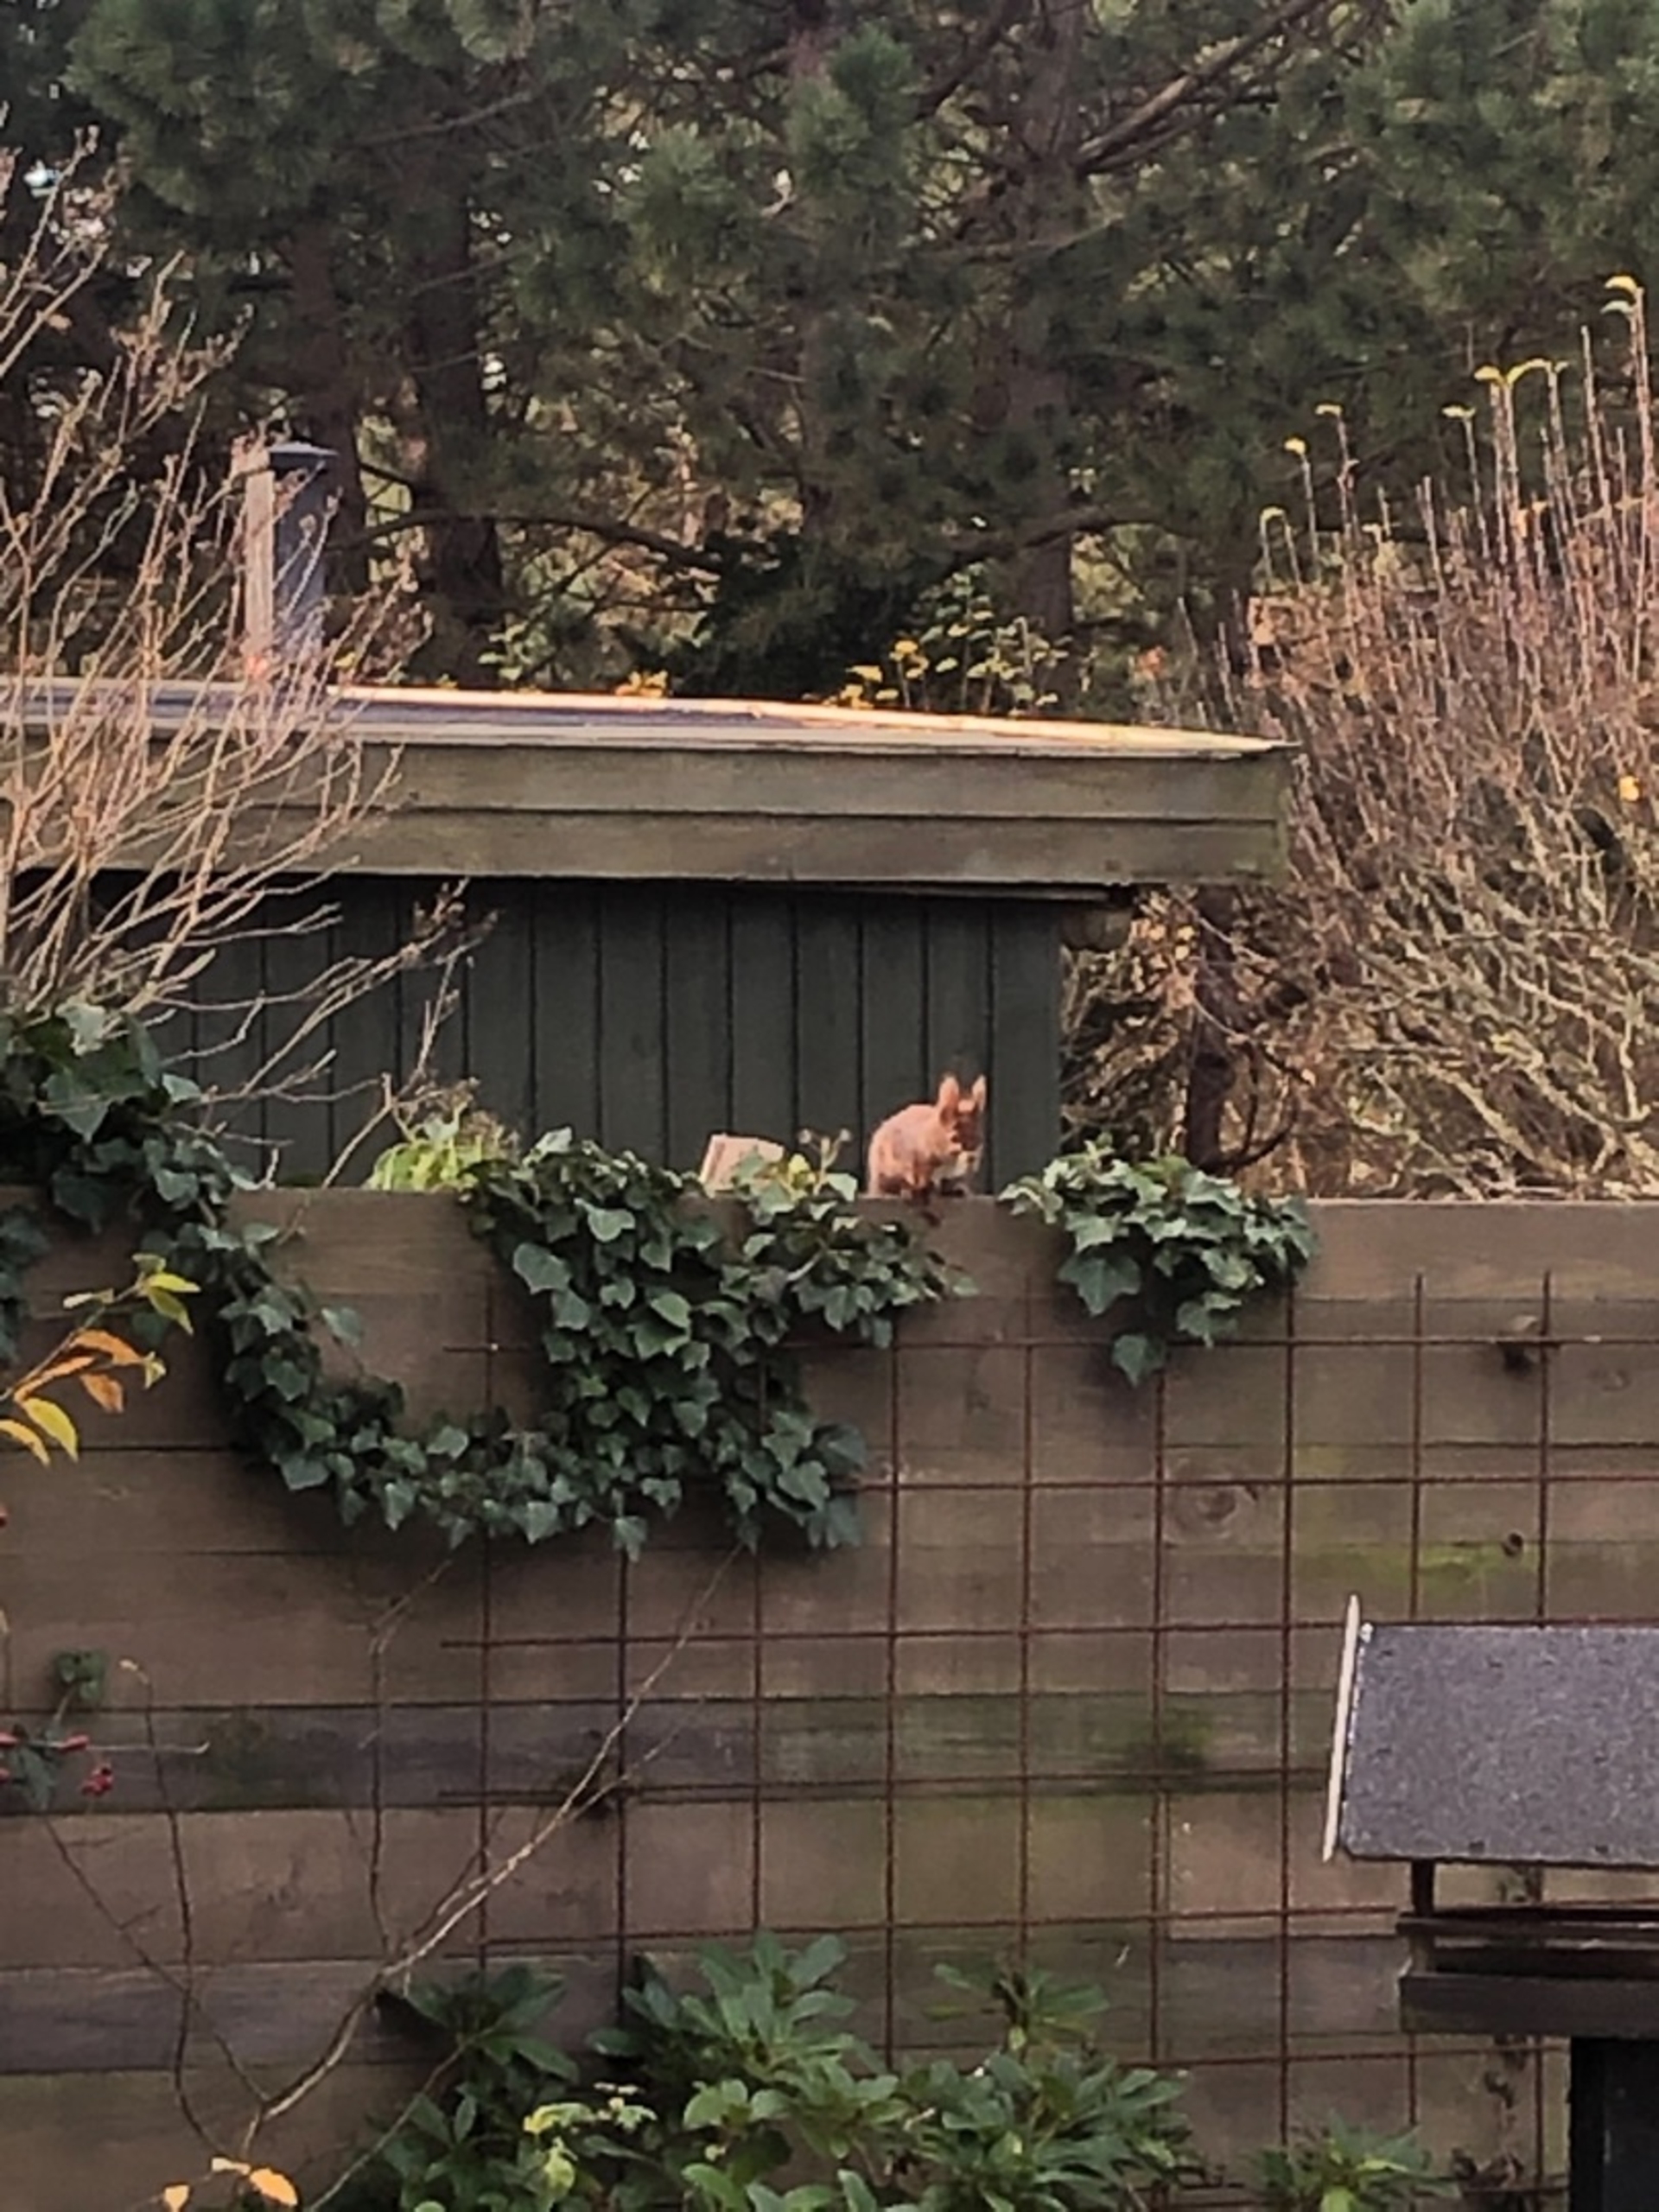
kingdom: Animalia
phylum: Chordata
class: Mammalia
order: Rodentia
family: Sciuridae
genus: Sciurus
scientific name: Sciurus vulgaris
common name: Egern
